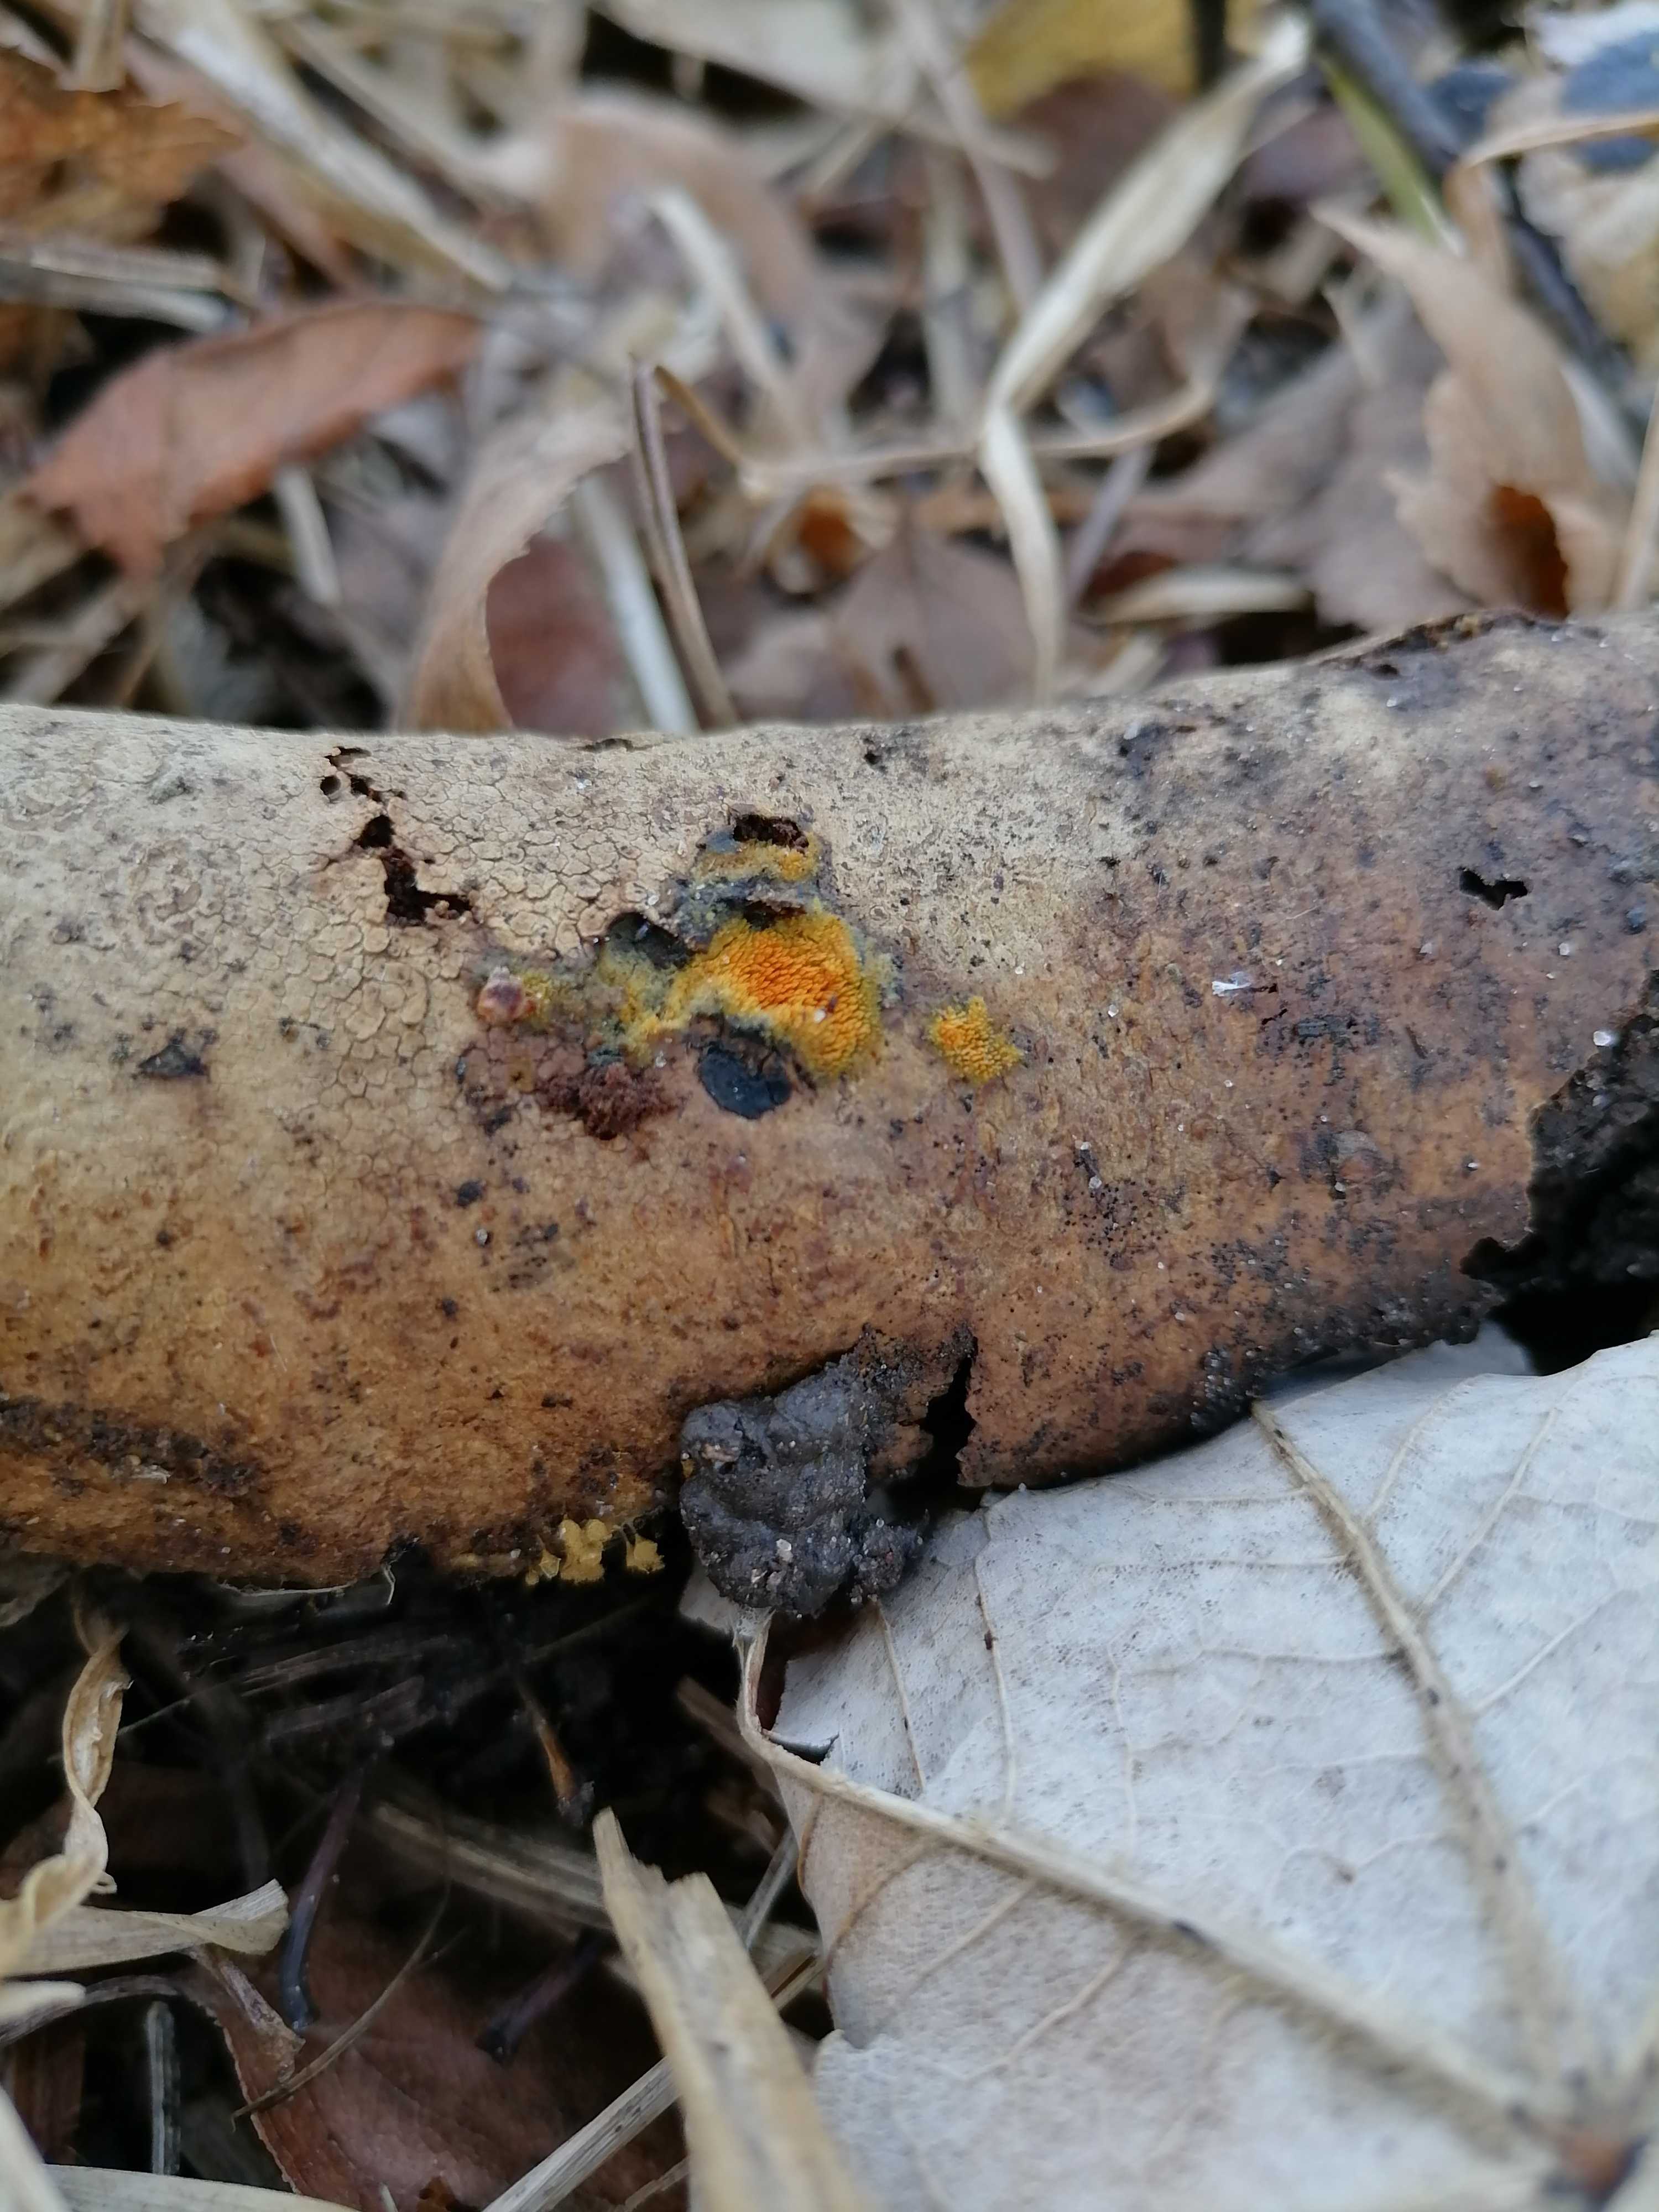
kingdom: Fungi
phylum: Basidiomycota
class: Agaricomycetes
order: Corticiales
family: Corticiaceae
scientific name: Corticiaceae
